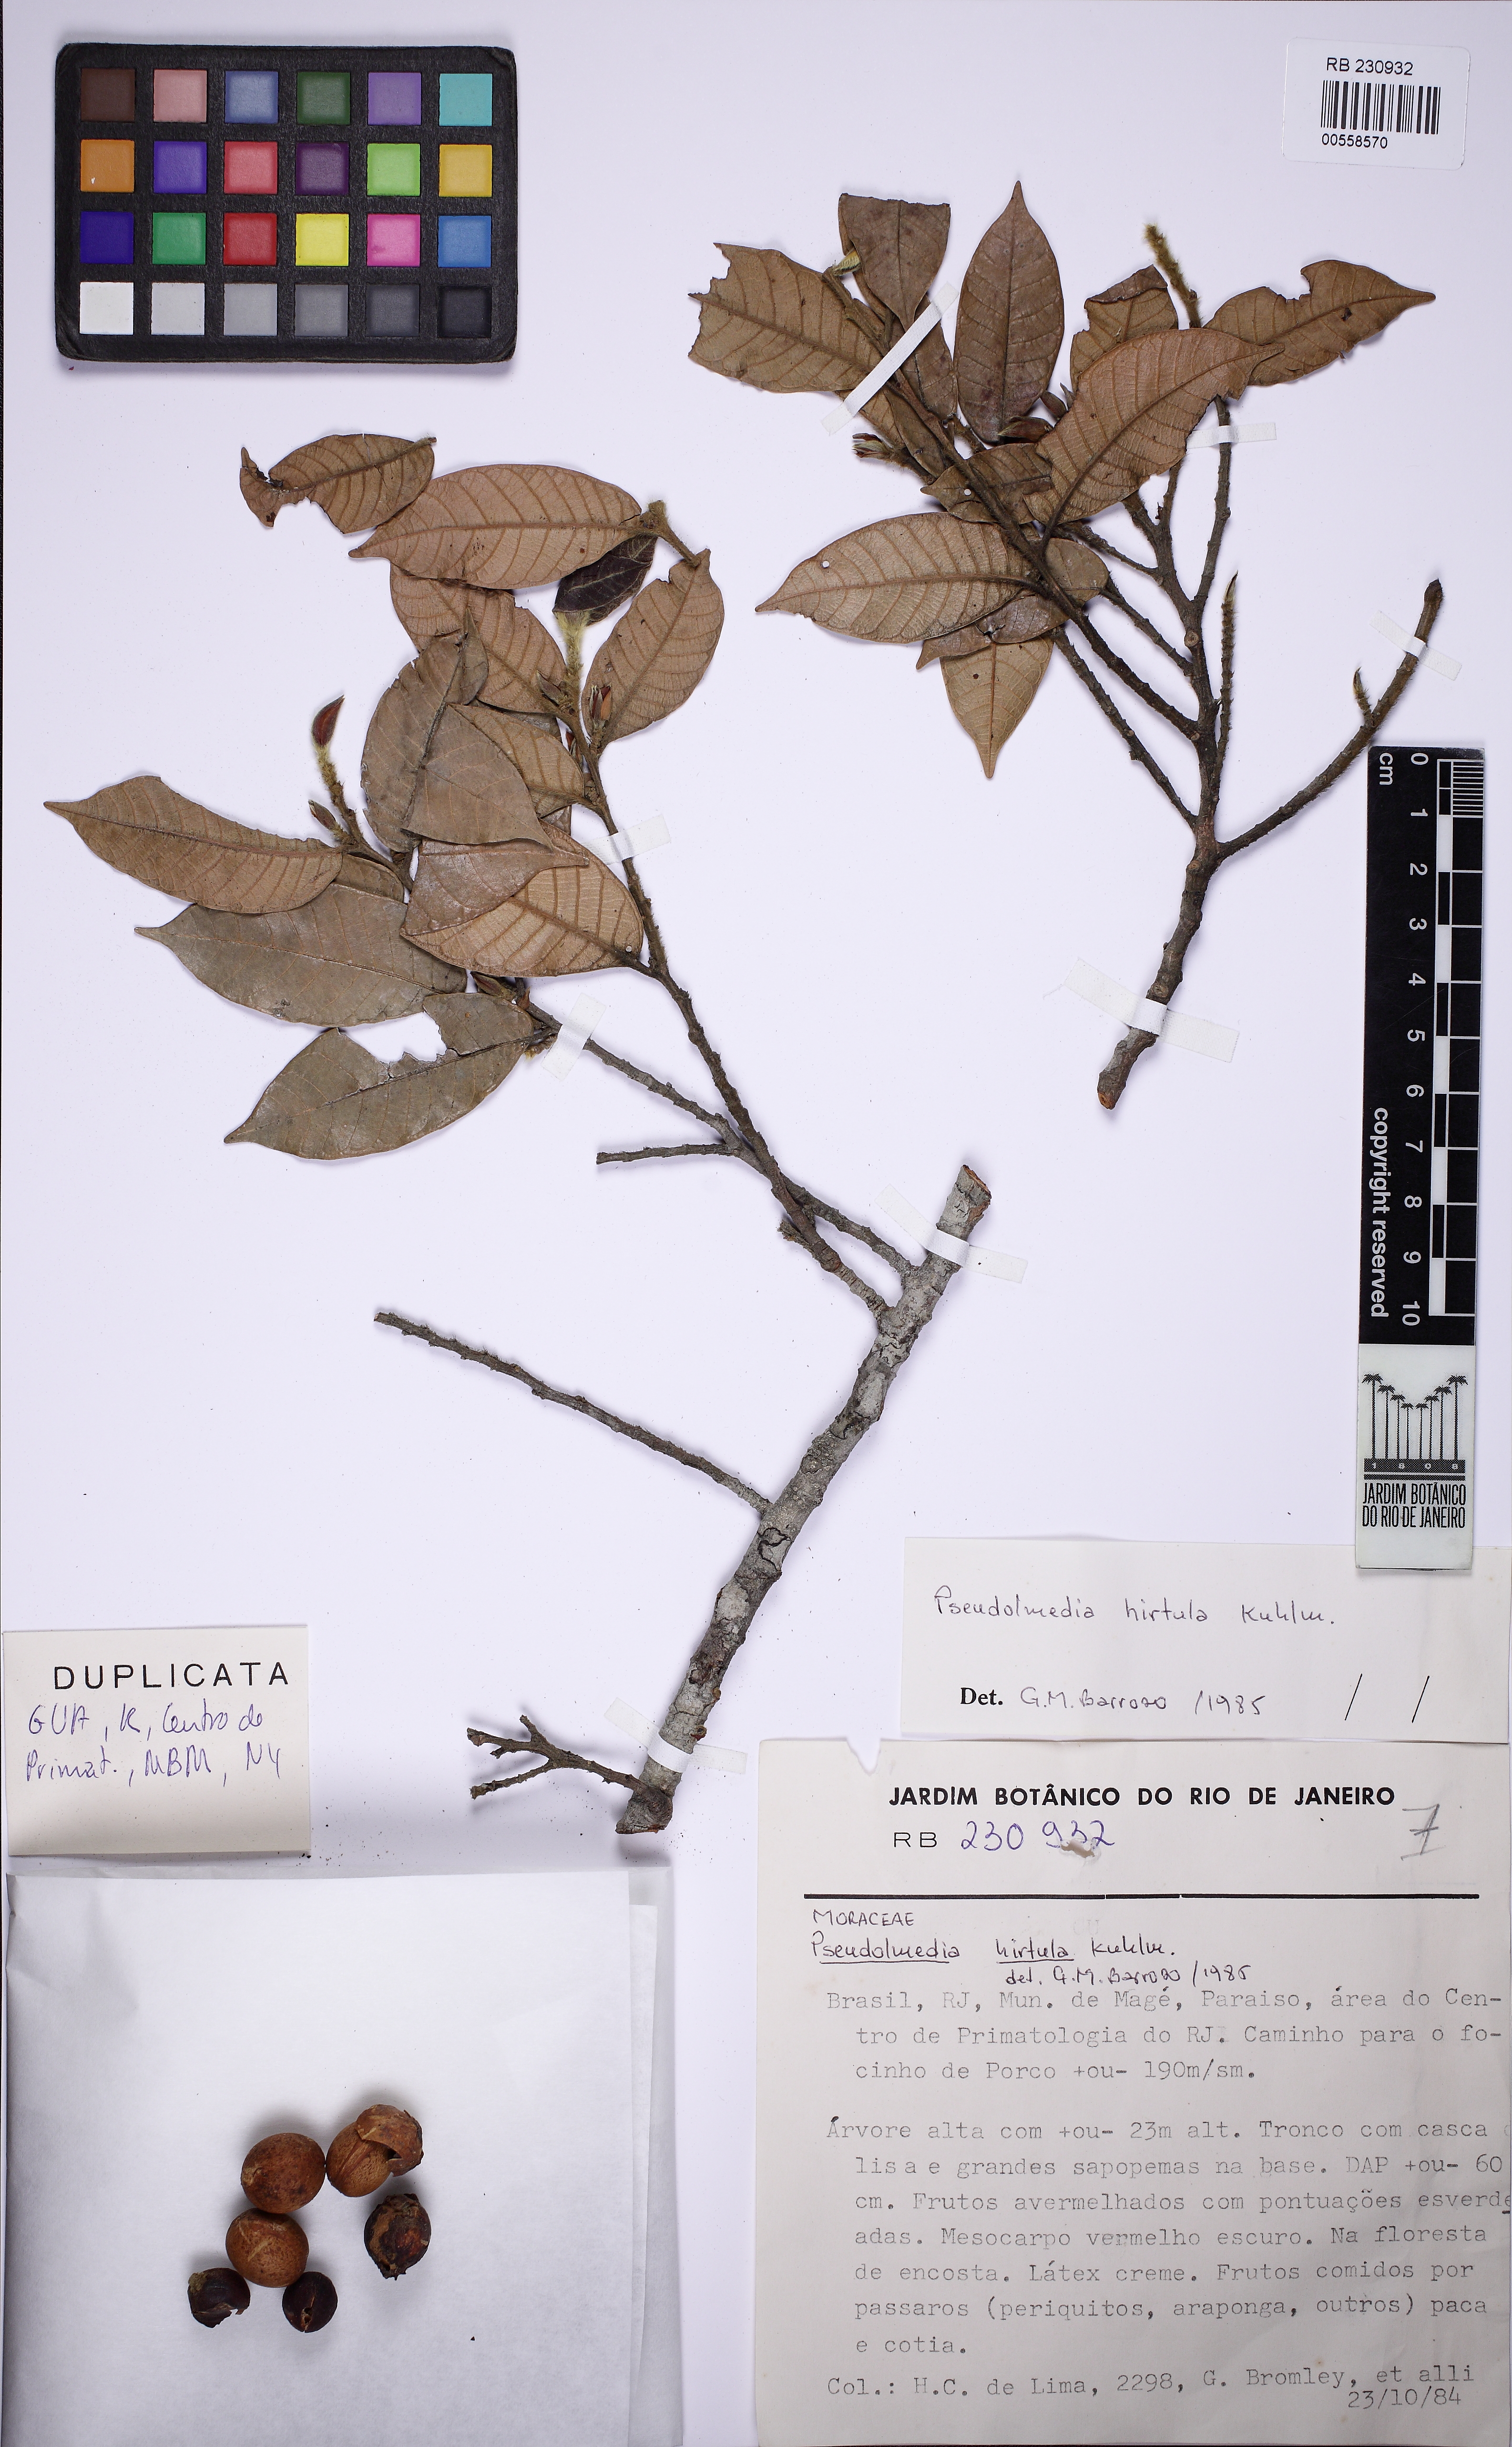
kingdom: Plantae
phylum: Tracheophyta
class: Magnoliopsida
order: Rosales
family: Moraceae
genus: Pseudolmedia
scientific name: Pseudolmedia hirtula
